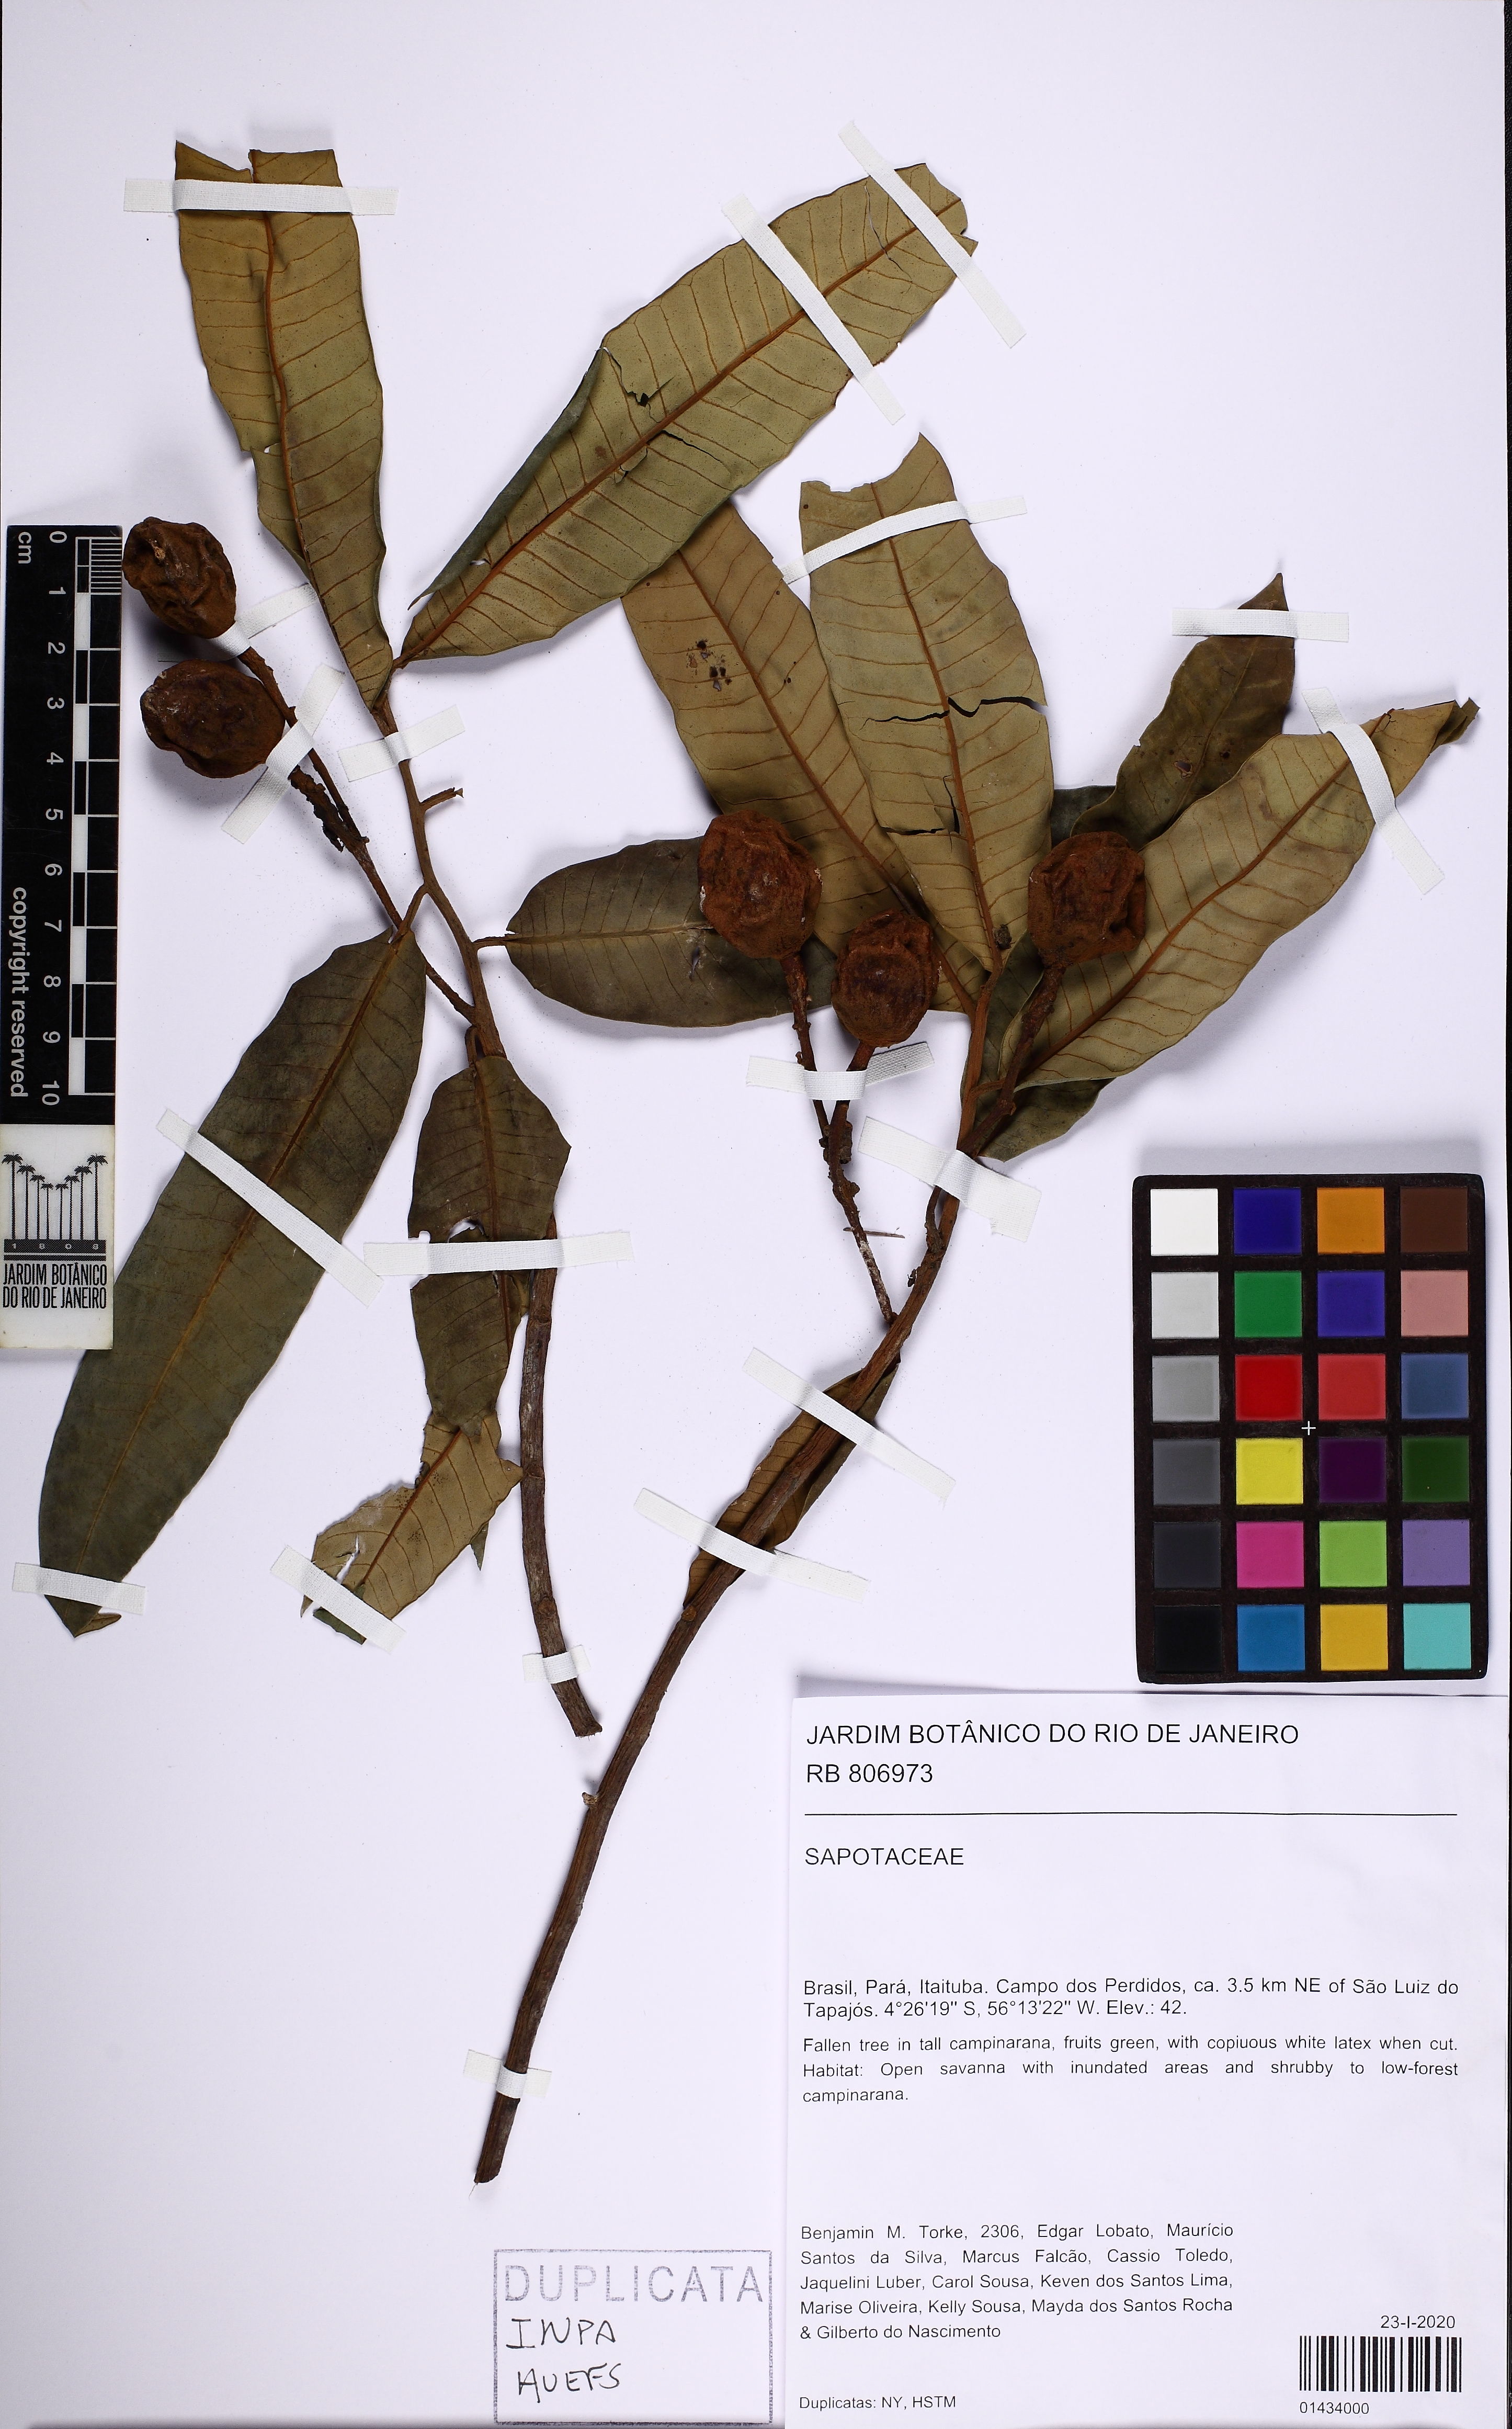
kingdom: Plantae
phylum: Tracheophyta
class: Magnoliopsida
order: Malpighiales
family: Passifloraceae
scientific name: Passifloraceae
